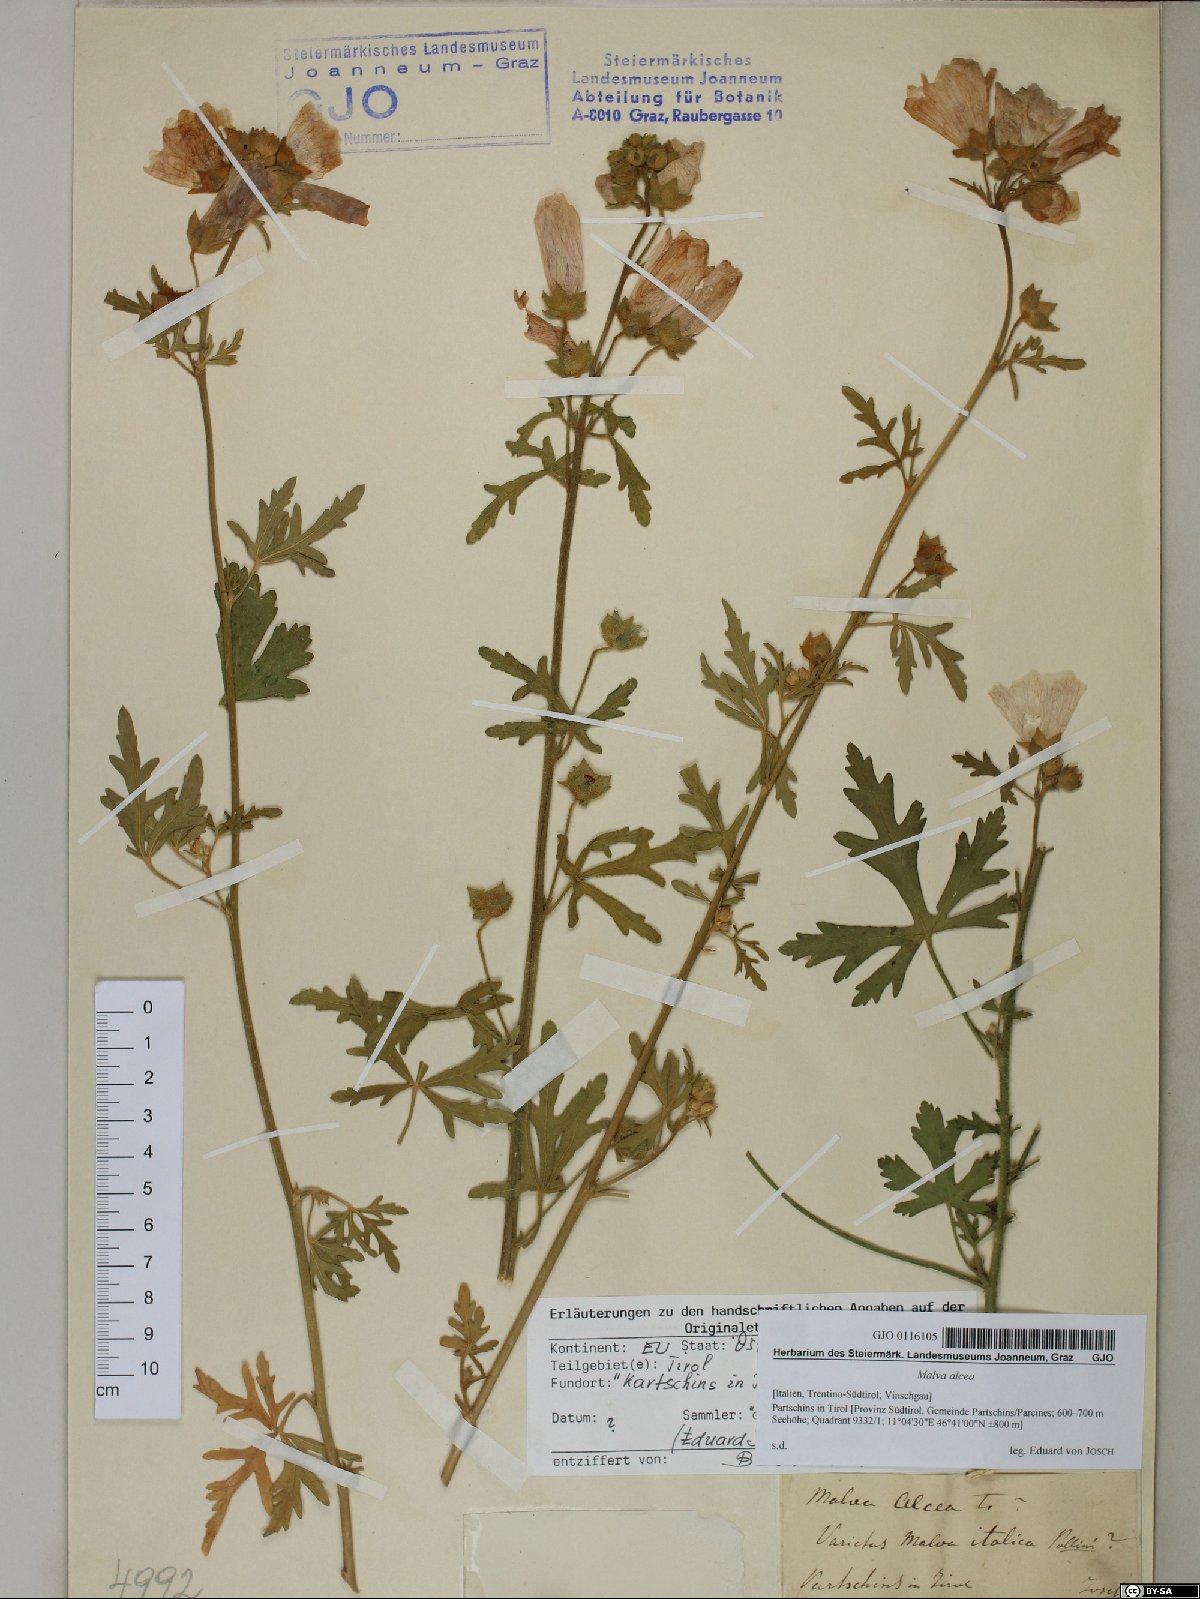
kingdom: Plantae
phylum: Tracheophyta
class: Magnoliopsida
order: Malvales
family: Malvaceae
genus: Malva
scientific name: Malva alcea
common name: Greater musk-mallow
